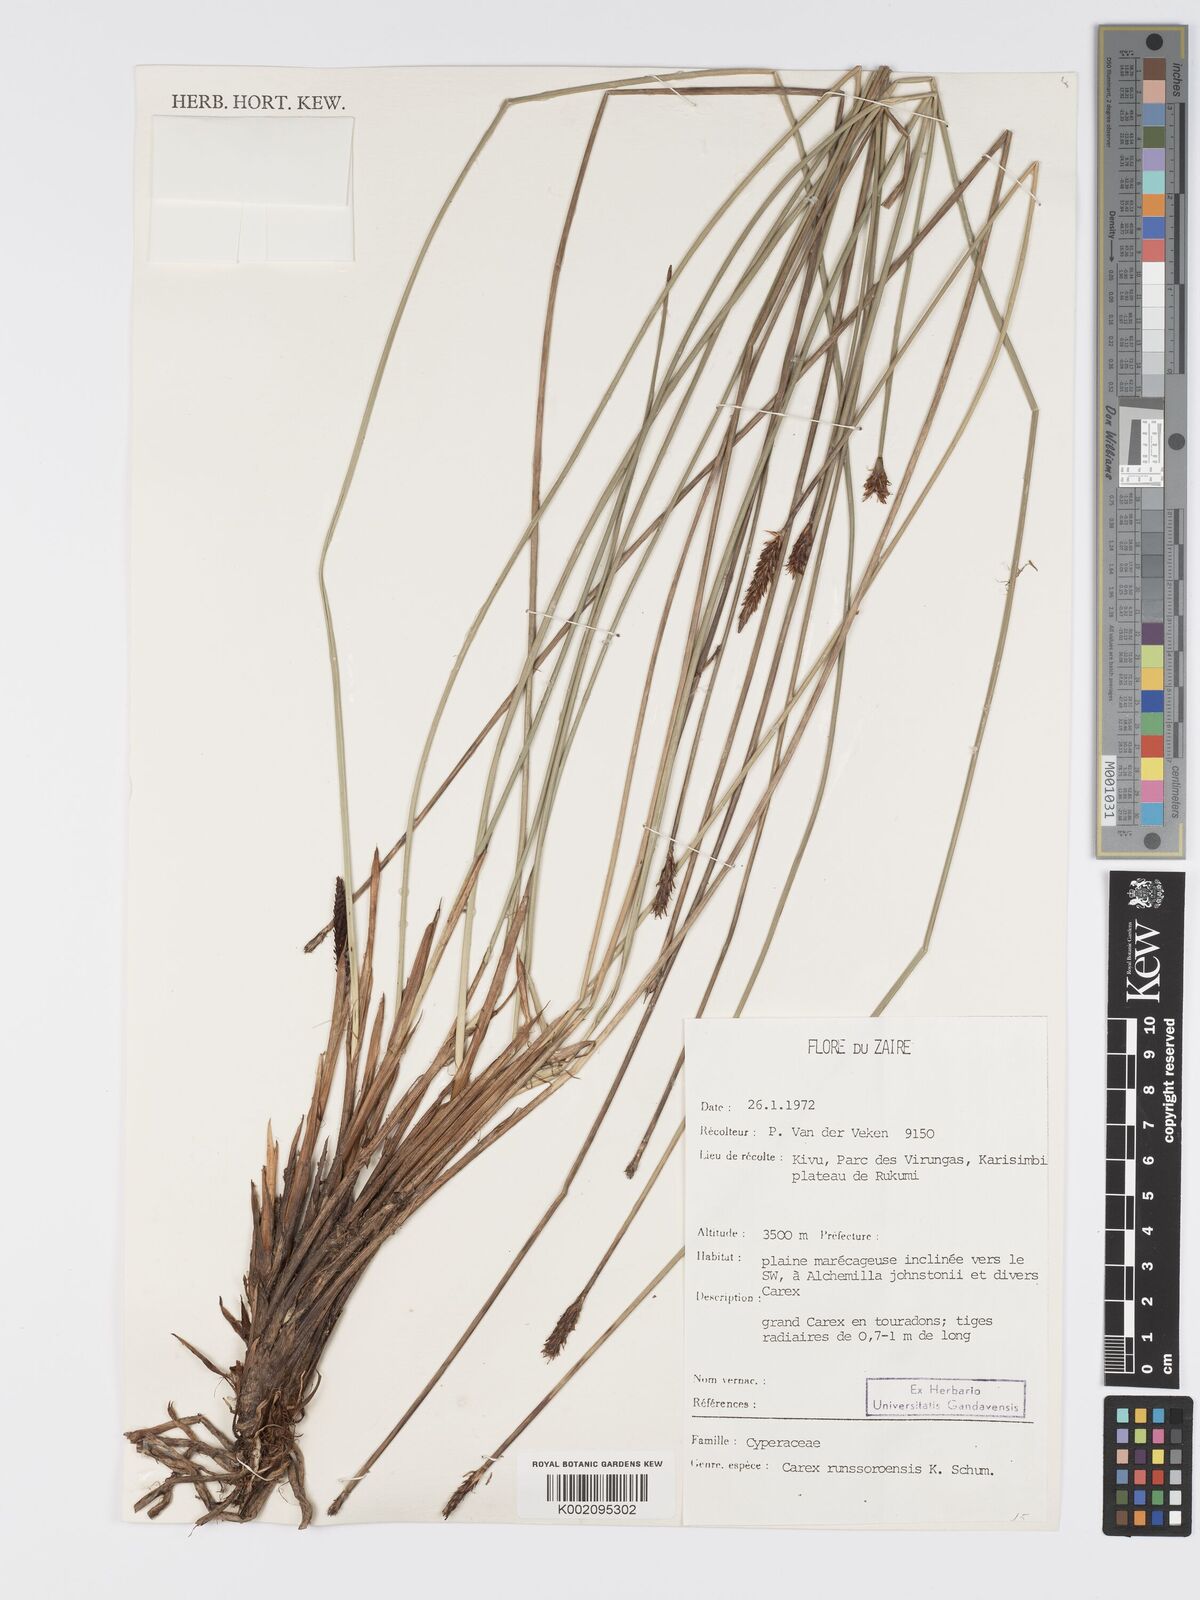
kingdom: Plantae
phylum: Tracheophyta
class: Liliopsida
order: Poales
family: Cyperaceae
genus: Carex
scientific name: Carex runssoroensis
